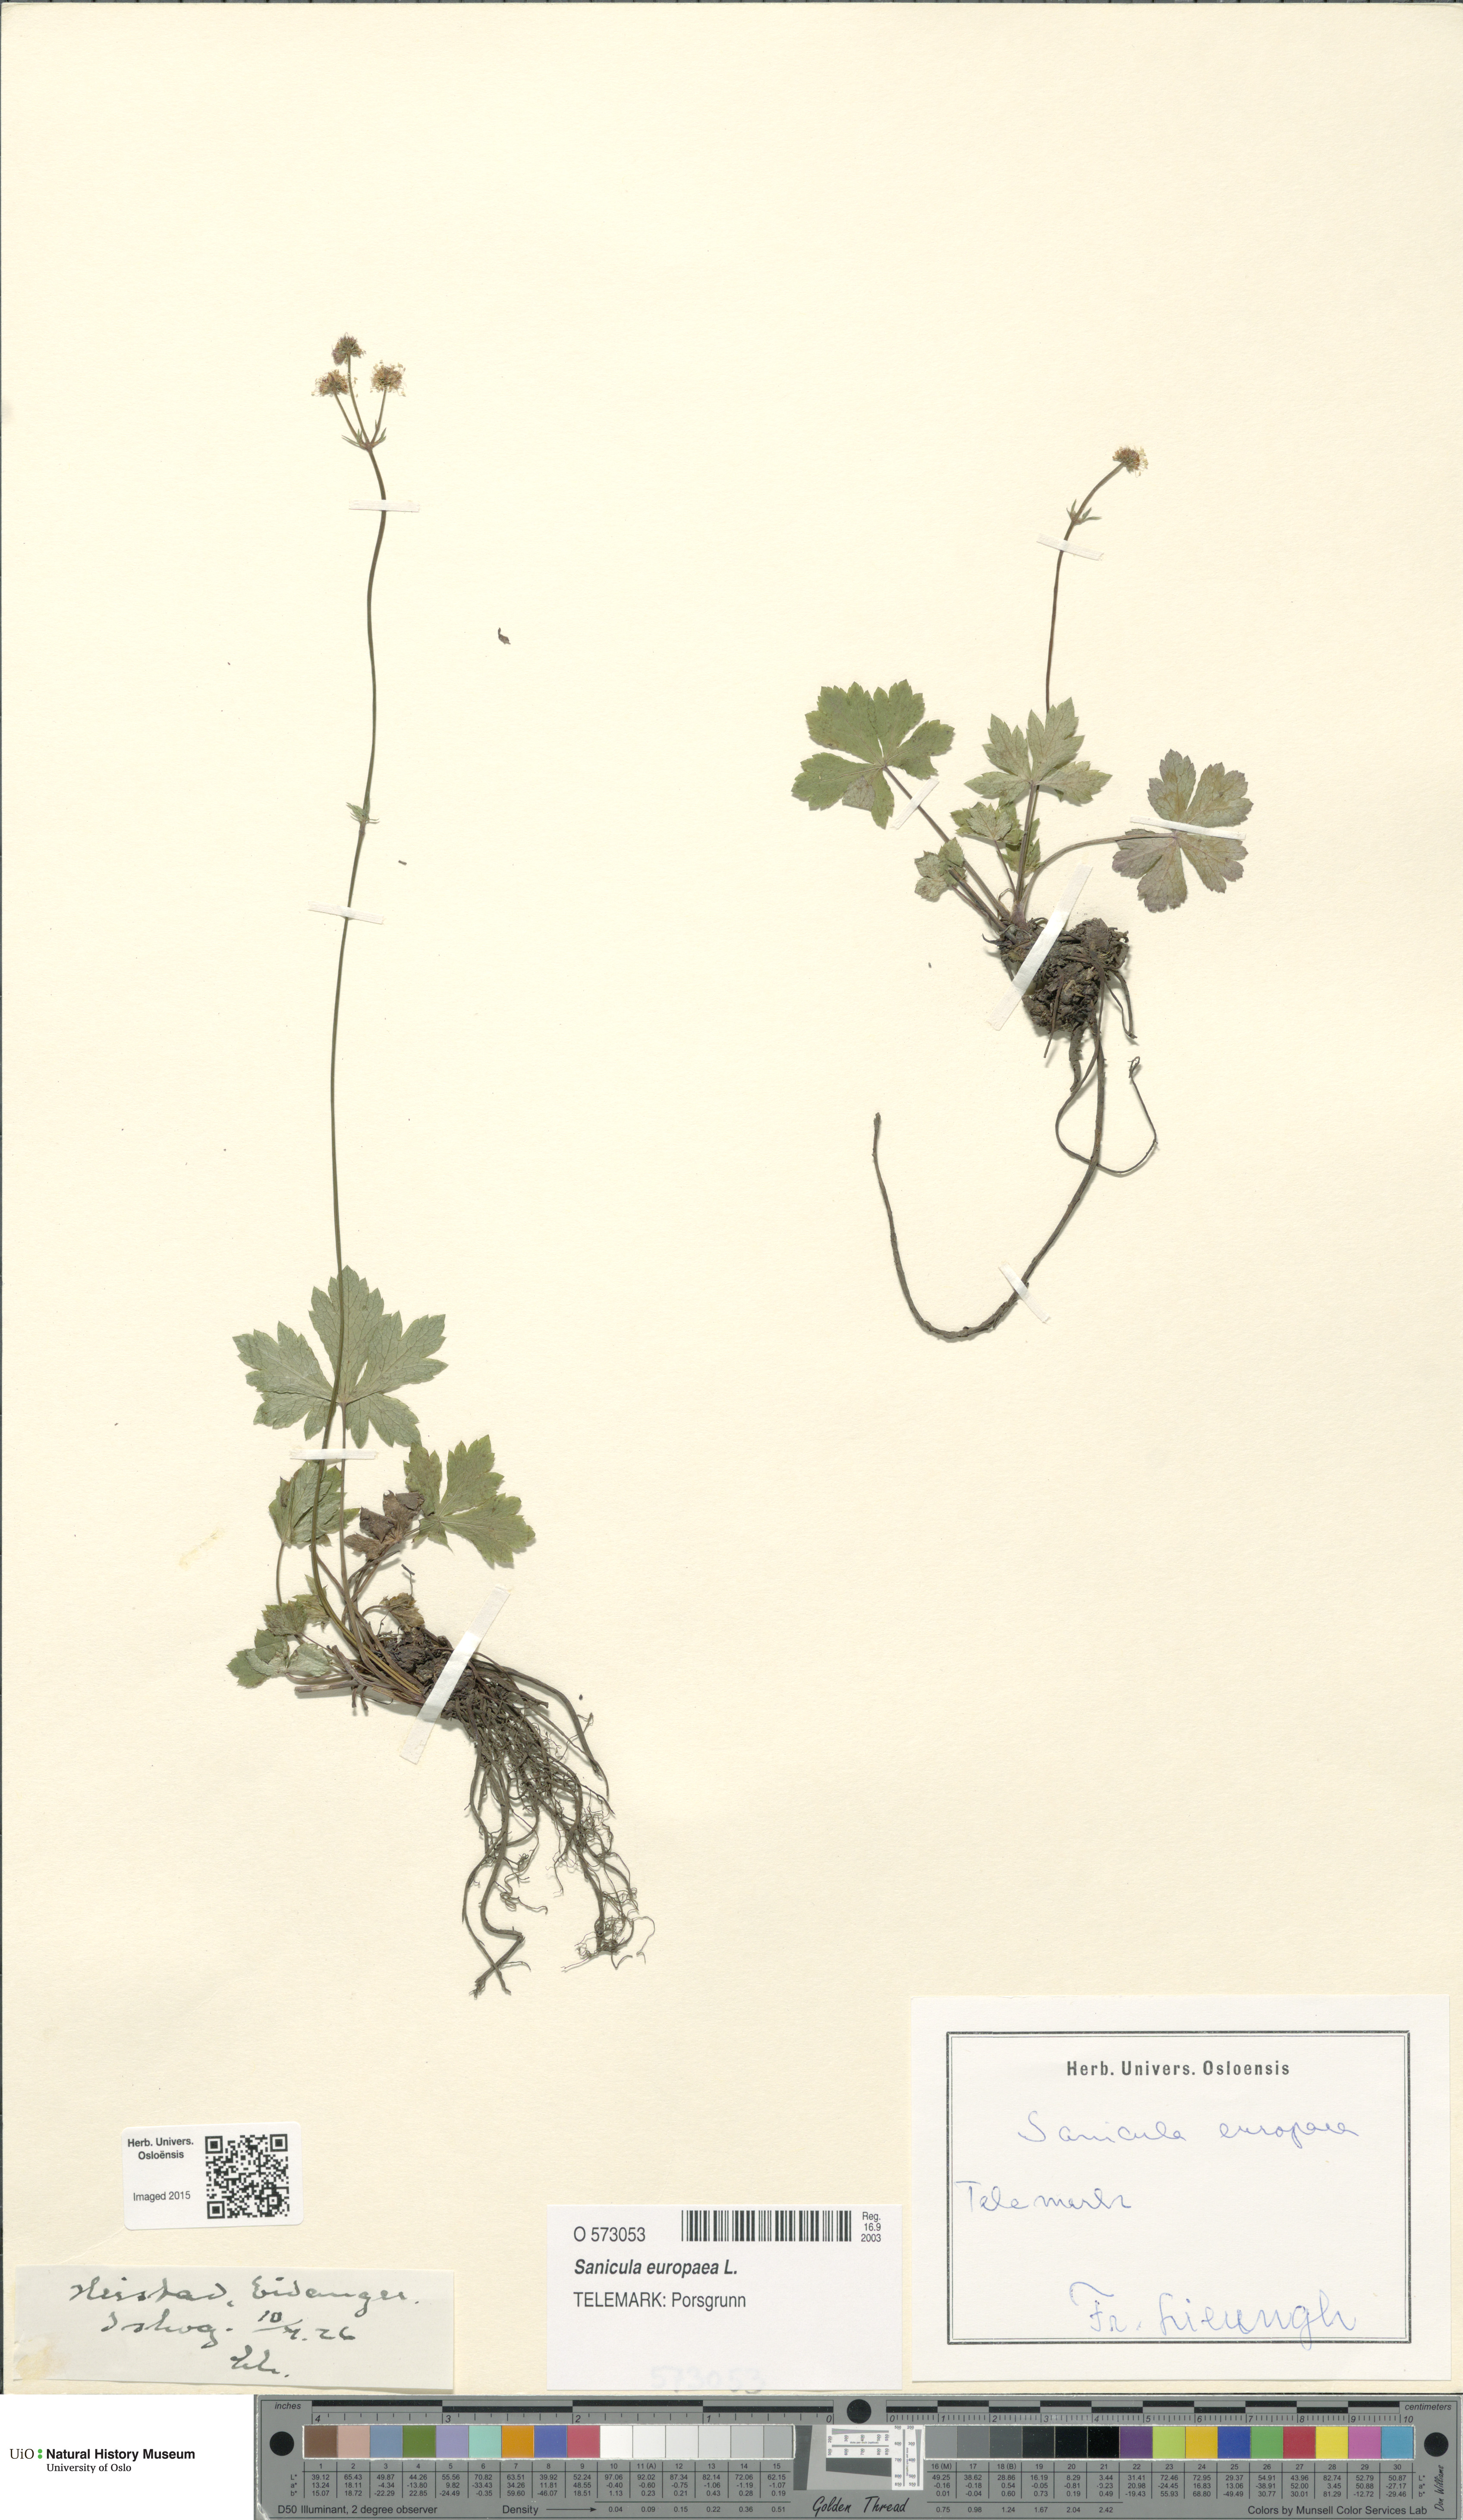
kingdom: Plantae
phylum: Tracheophyta
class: Magnoliopsida
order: Apiales
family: Apiaceae
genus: Sanicula
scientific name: Sanicula europaea
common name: Sanicle
